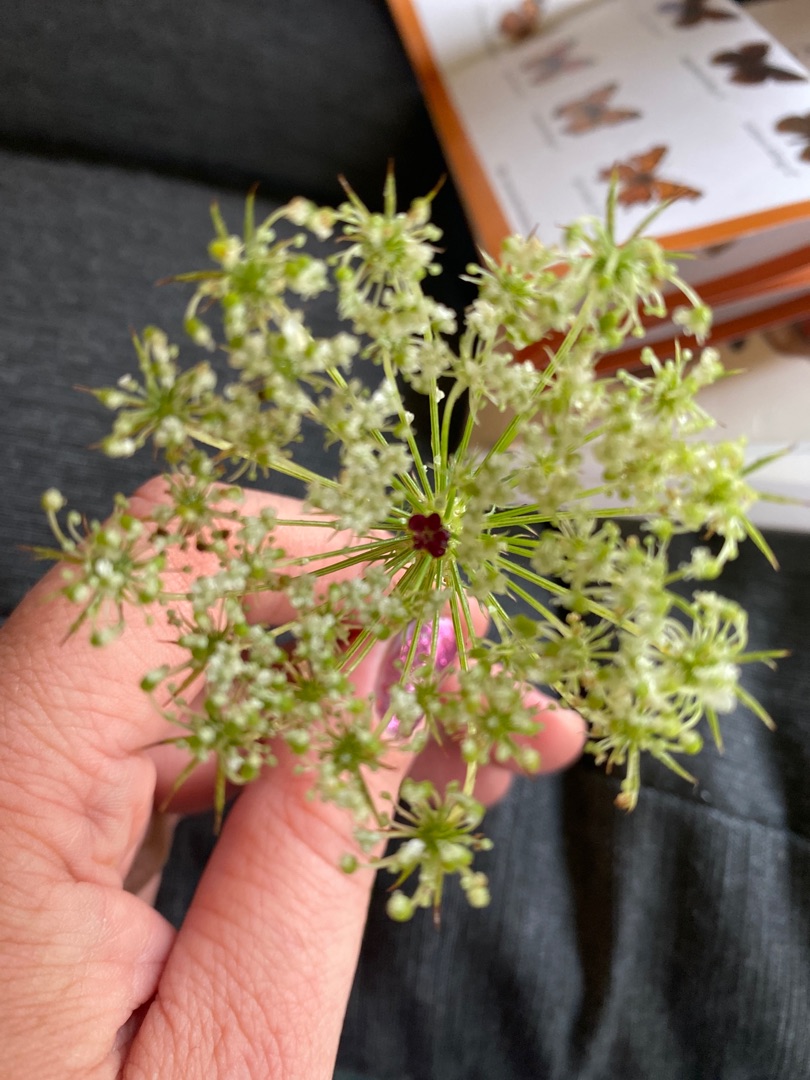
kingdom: Plantae
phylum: Tracheophyta
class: Magnoliopsida
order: Apiales
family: Apiaceae
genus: Daucus
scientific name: Daucus carota
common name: Vild gulerod
